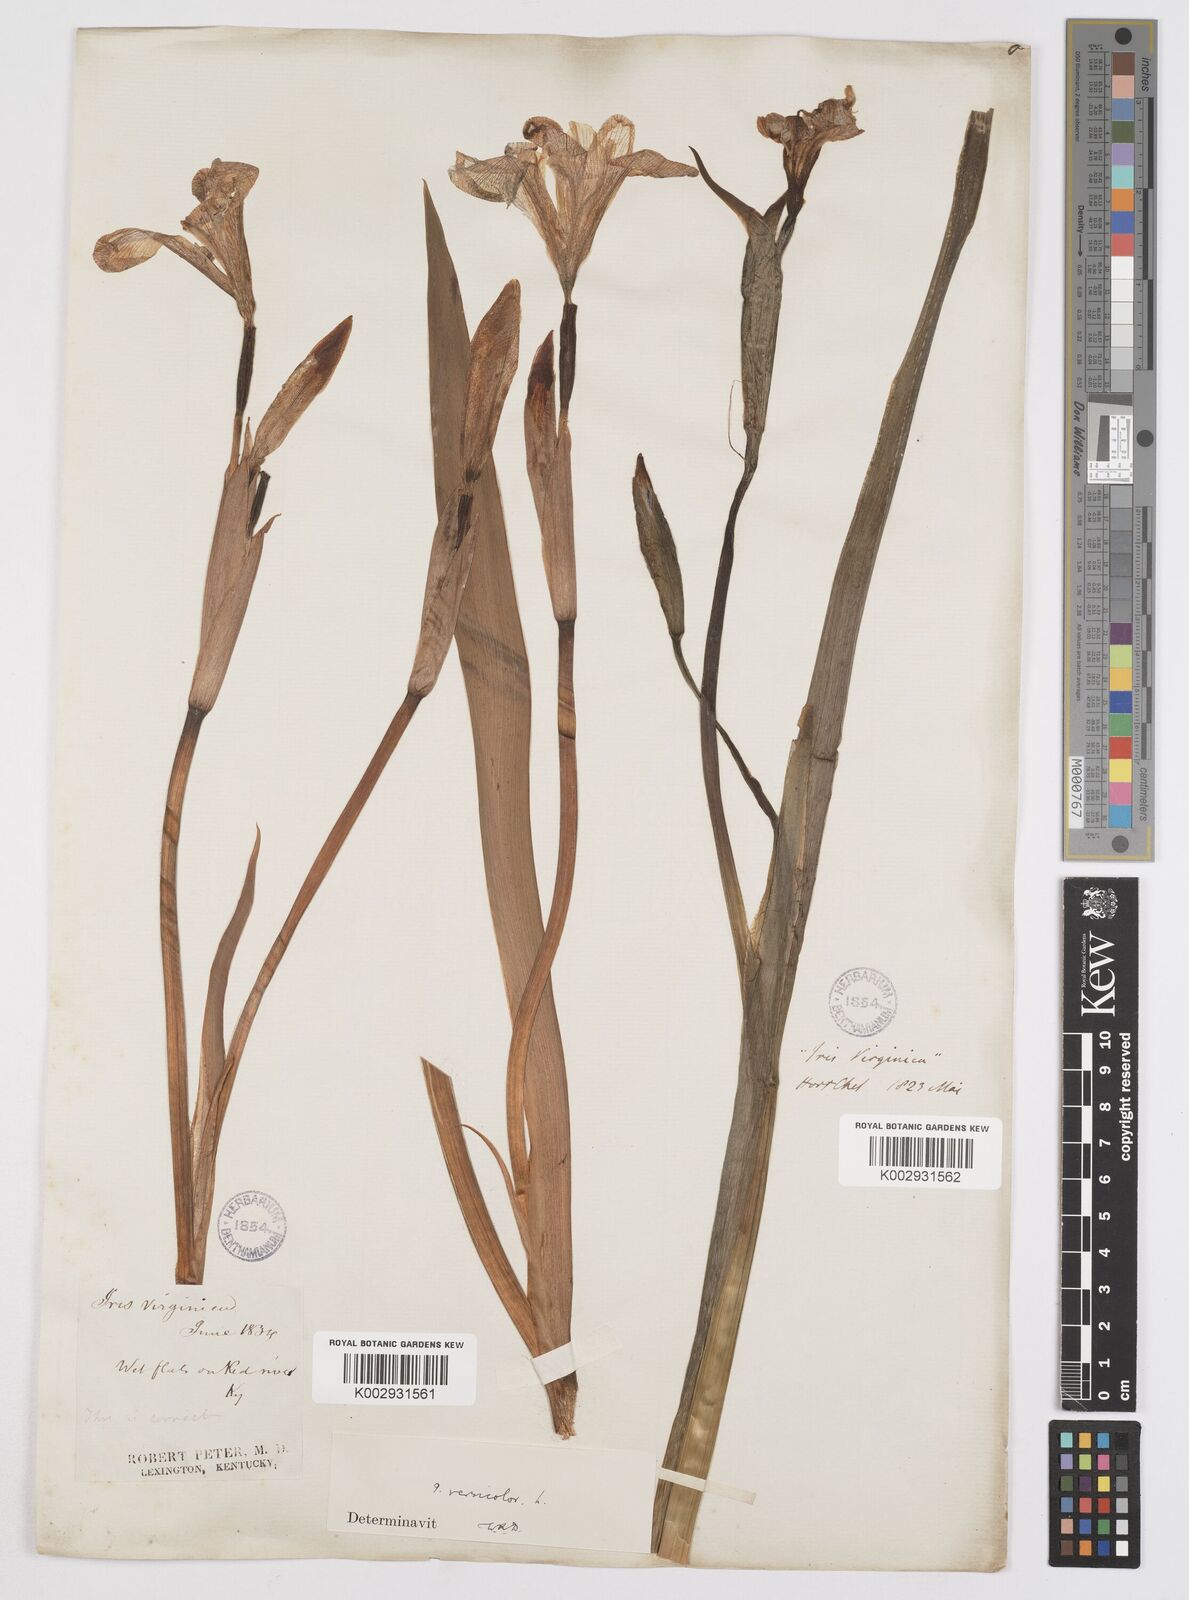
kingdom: Plantae
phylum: Tracheophyta
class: Liliopsida
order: Asparagales
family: Iridaceae
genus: Iris
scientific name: Iris virginica
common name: Southern blue flag
